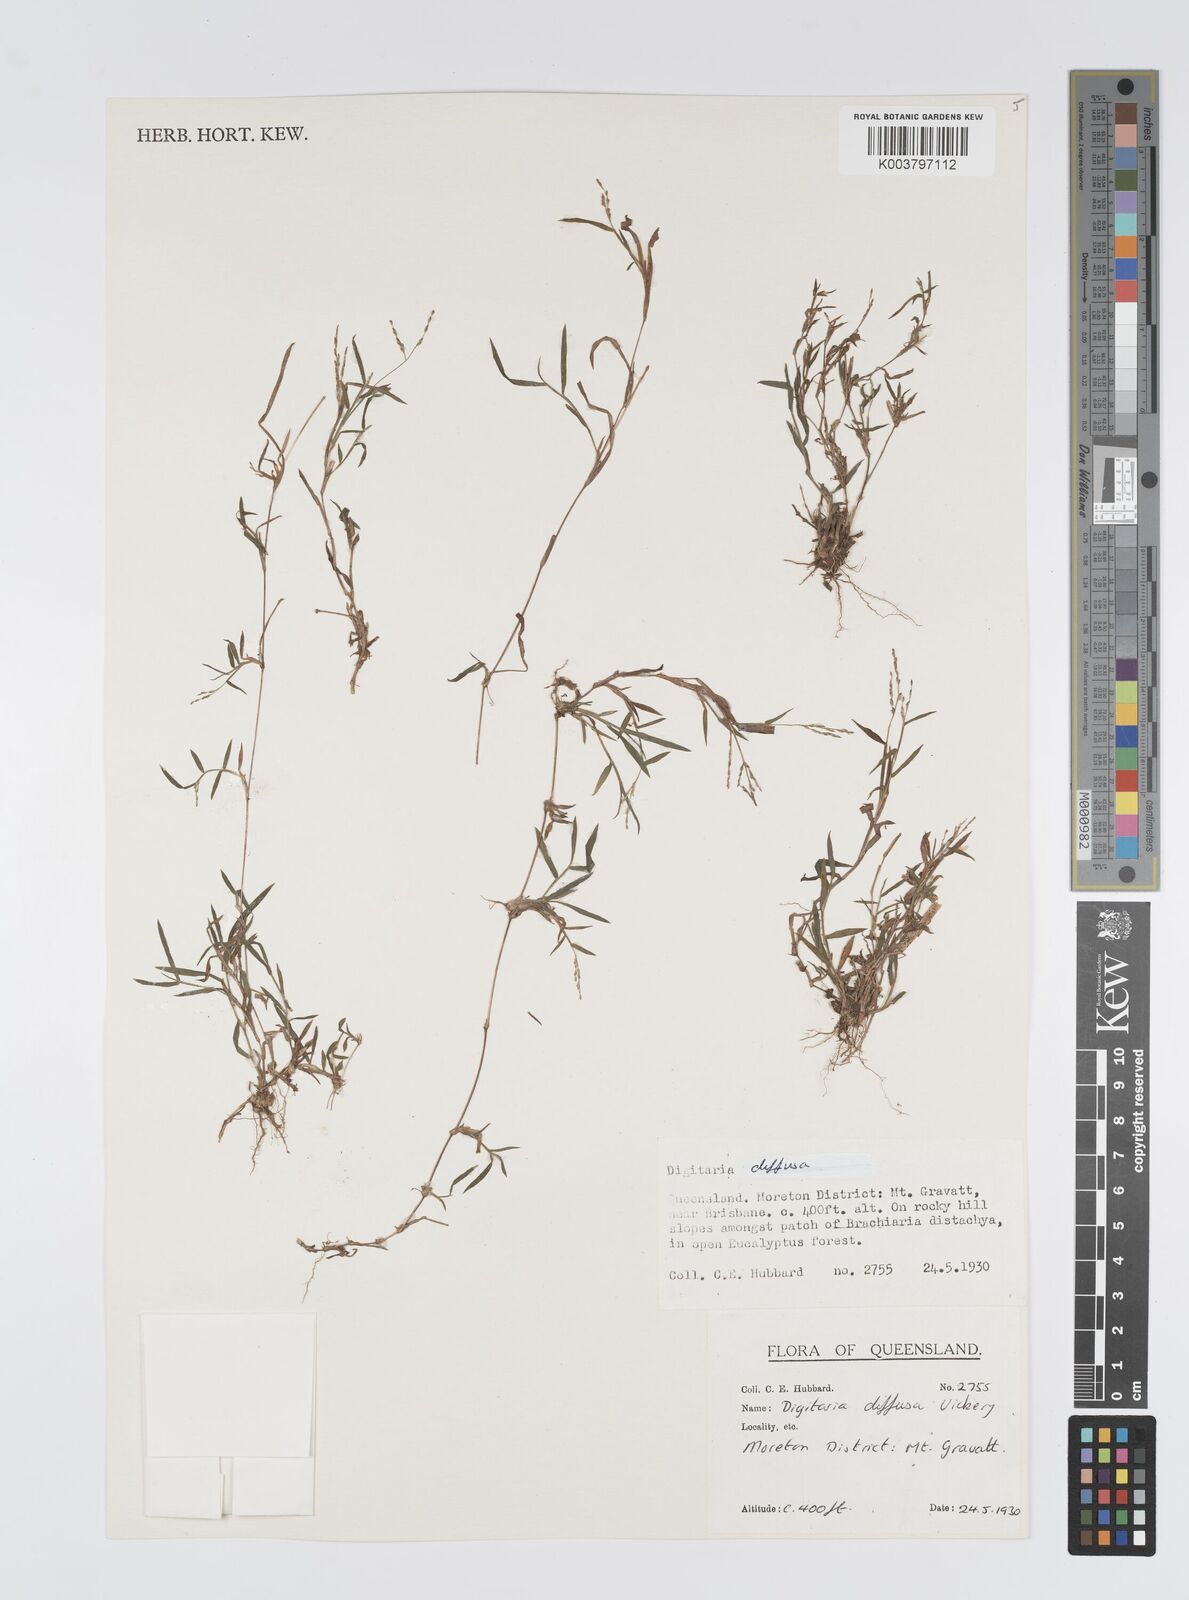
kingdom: Plantae
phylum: Tracheophyta
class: Liliopsida
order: Poales
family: Poaceae
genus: Digitaria
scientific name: Digitaria diffusa
